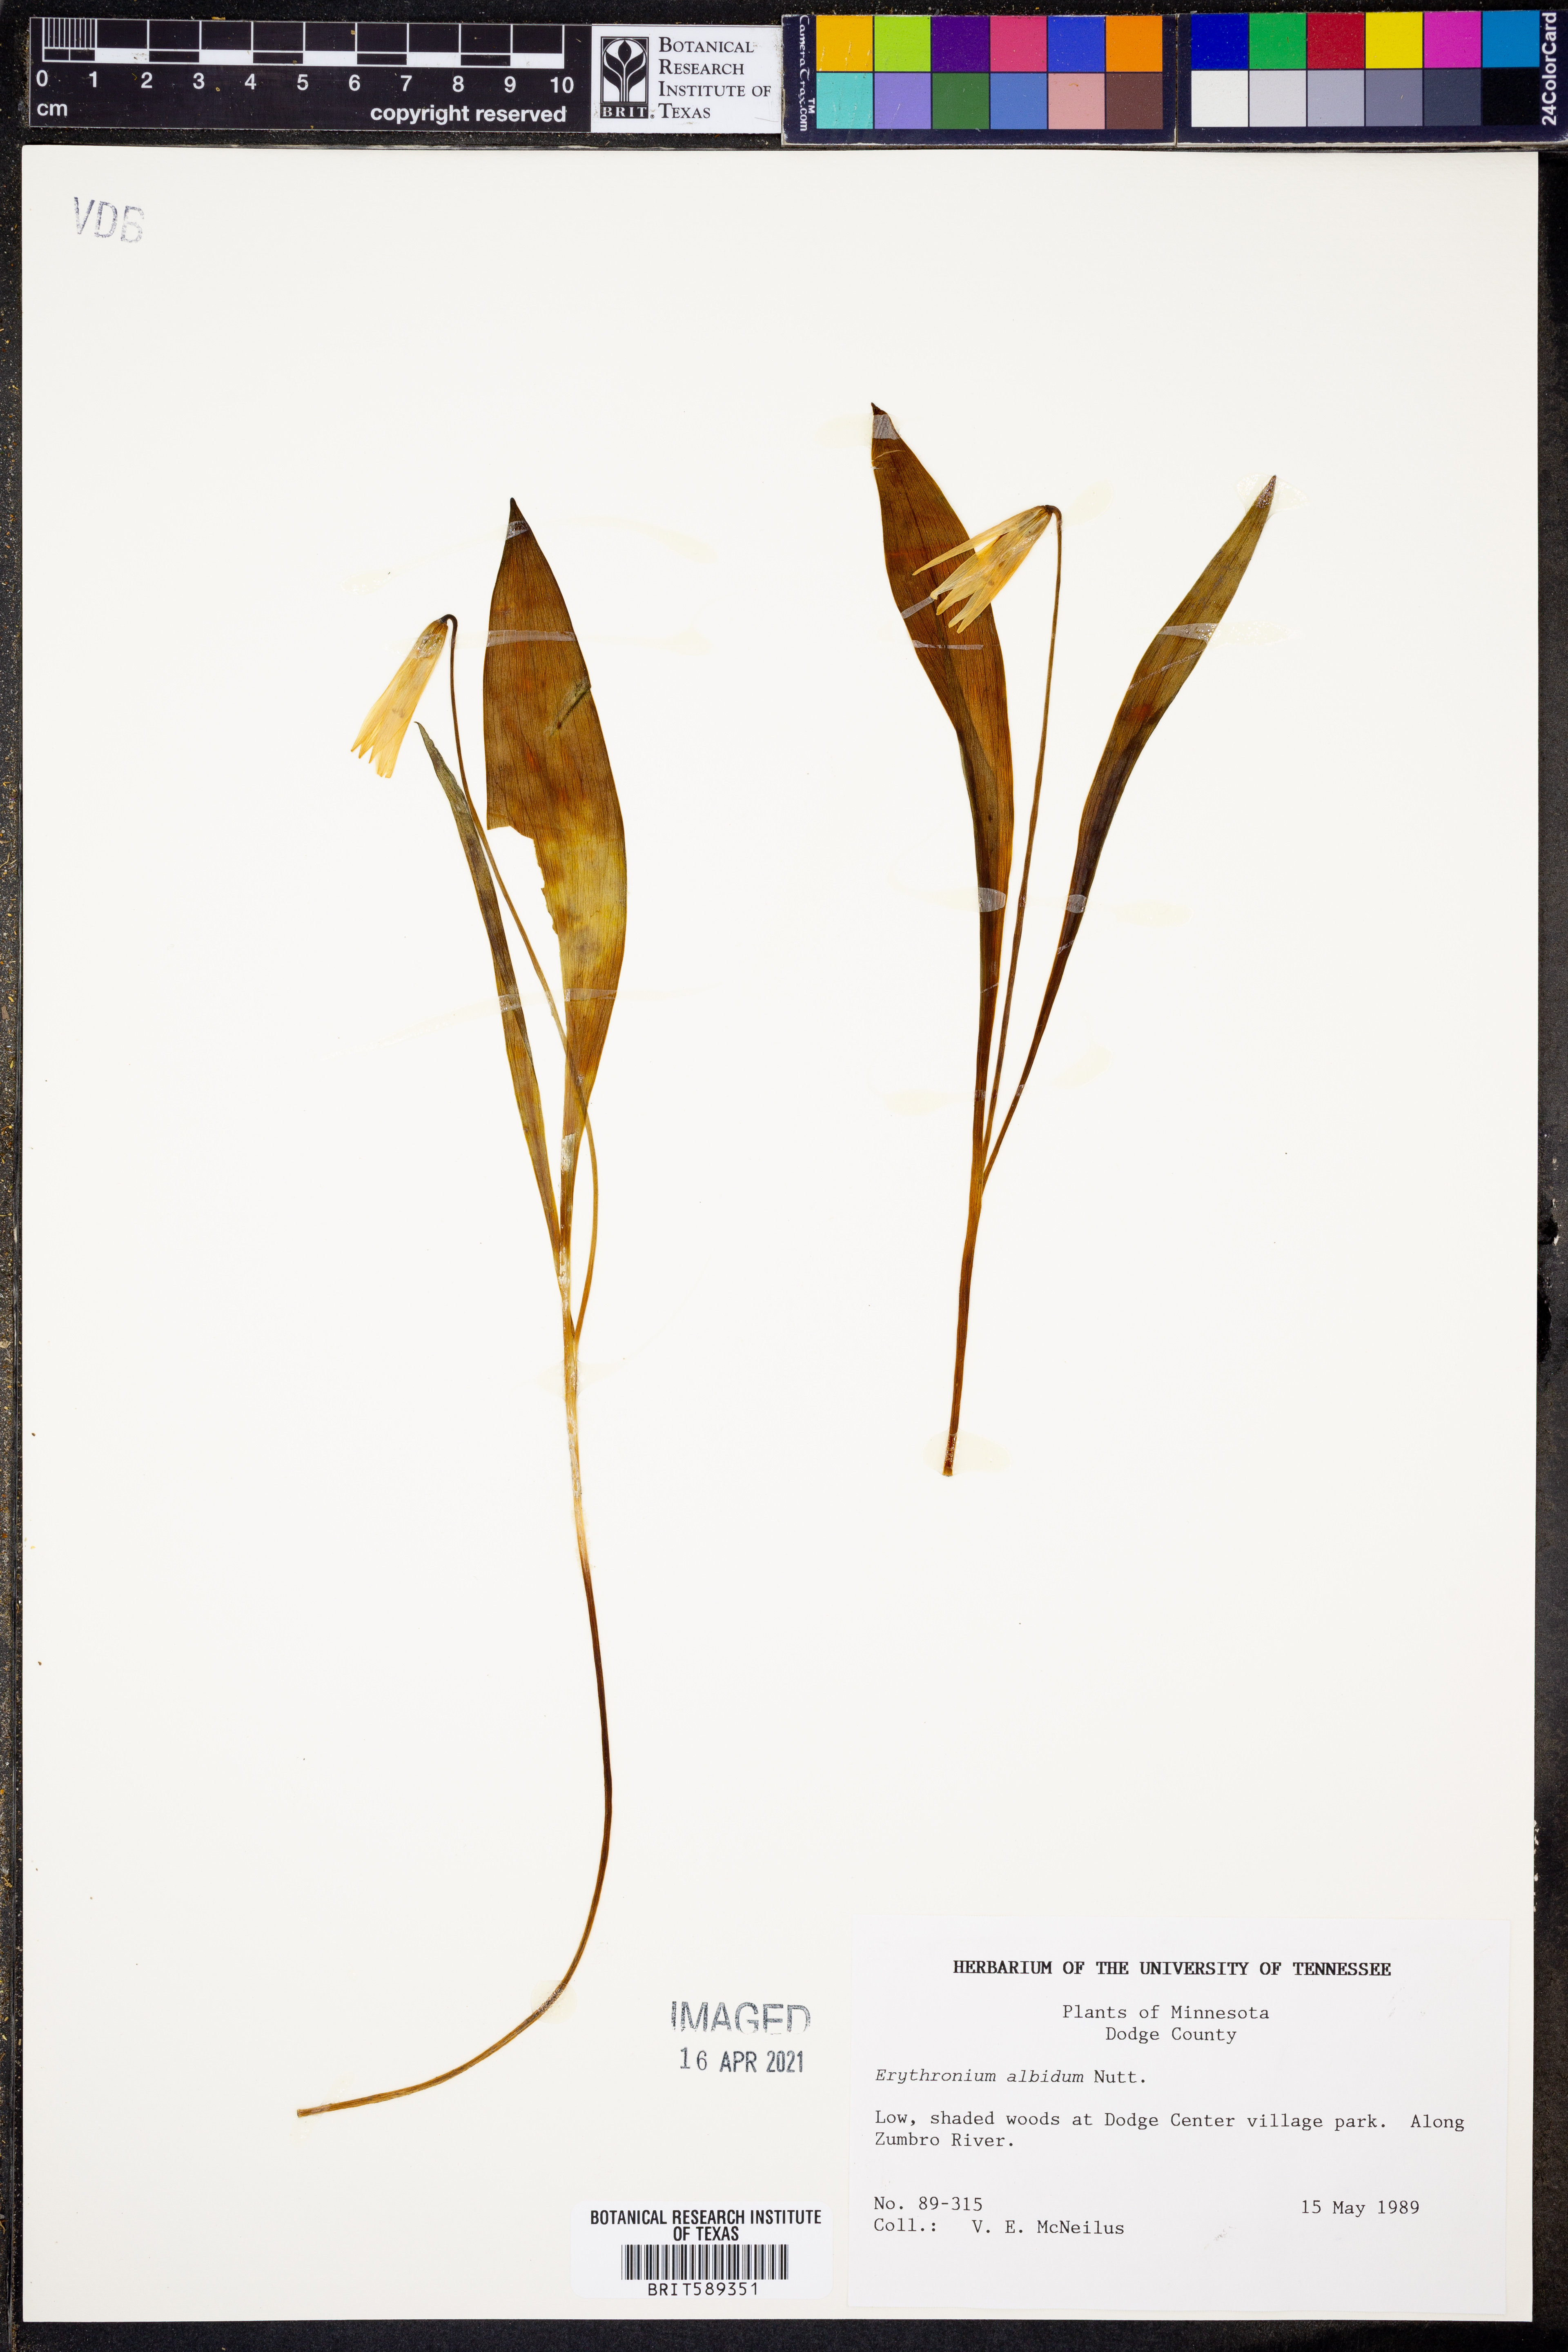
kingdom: Plantae
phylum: Tracheophyta
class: Liliopsida
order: Liliales
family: Liliaceae
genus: Erythronium
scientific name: Erythronium albidum
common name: White trout-lily
